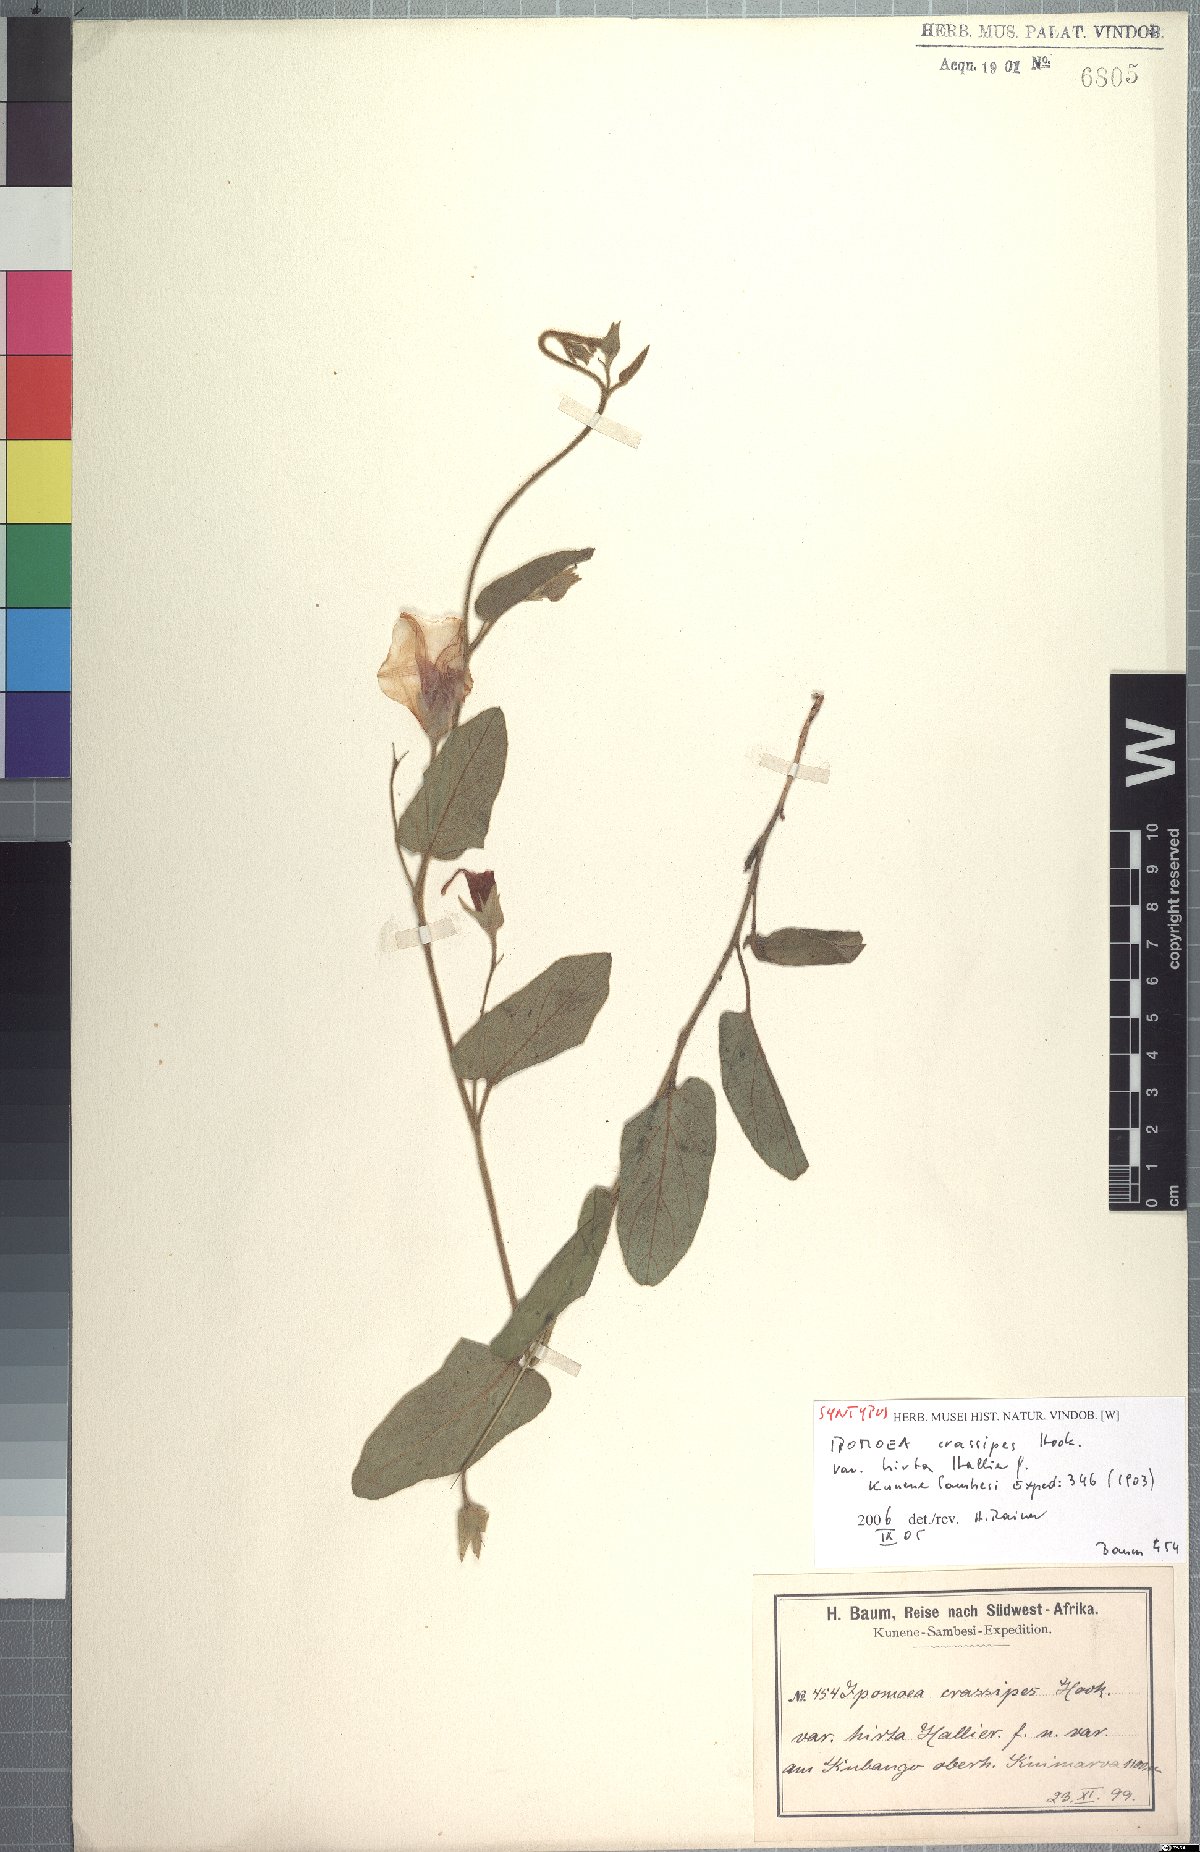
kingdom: Plantae
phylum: Tracheophyta
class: Magnoliopsida
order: Solanales
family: Convolvulaceae
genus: Ipomoea
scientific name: Ipomoea crassipes
